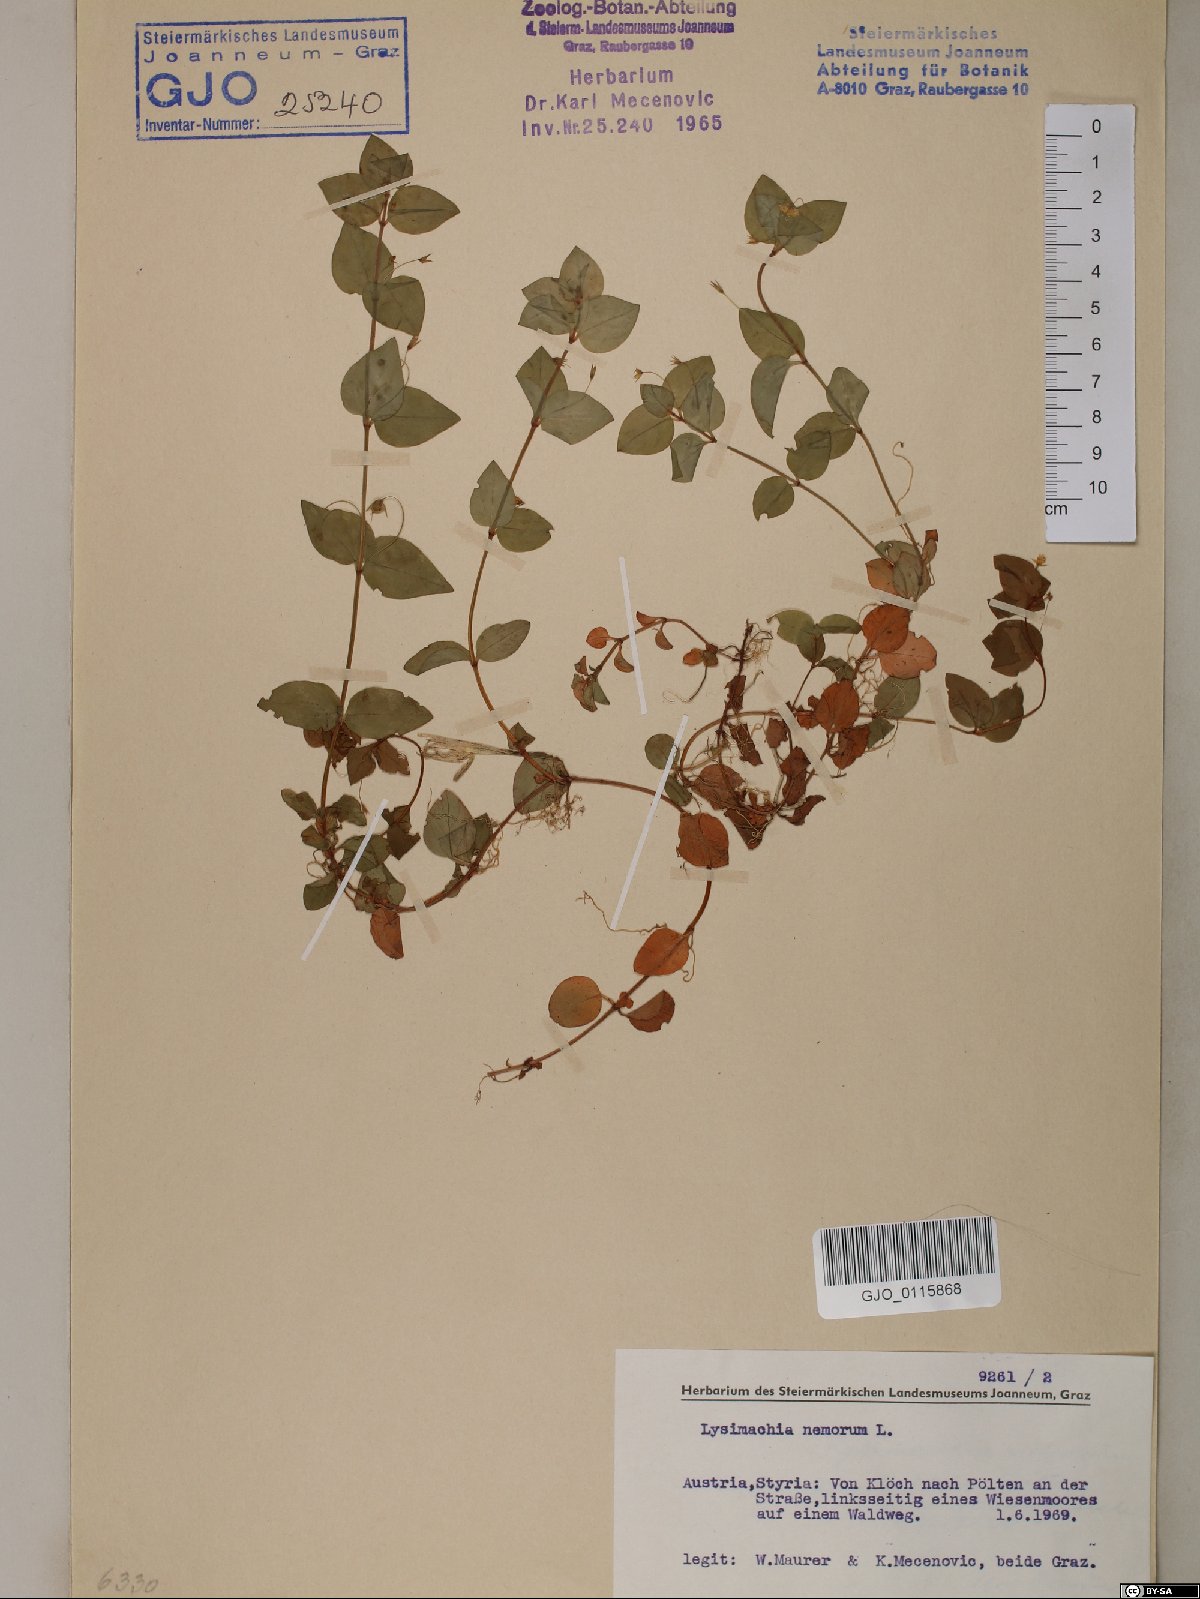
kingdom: Plantae
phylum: Tracheophyta
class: Magnoliopsida
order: Ericales
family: Primulaceae
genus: Lysimachia
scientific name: Lysimachia nemorum
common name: Yellow pimpernel
